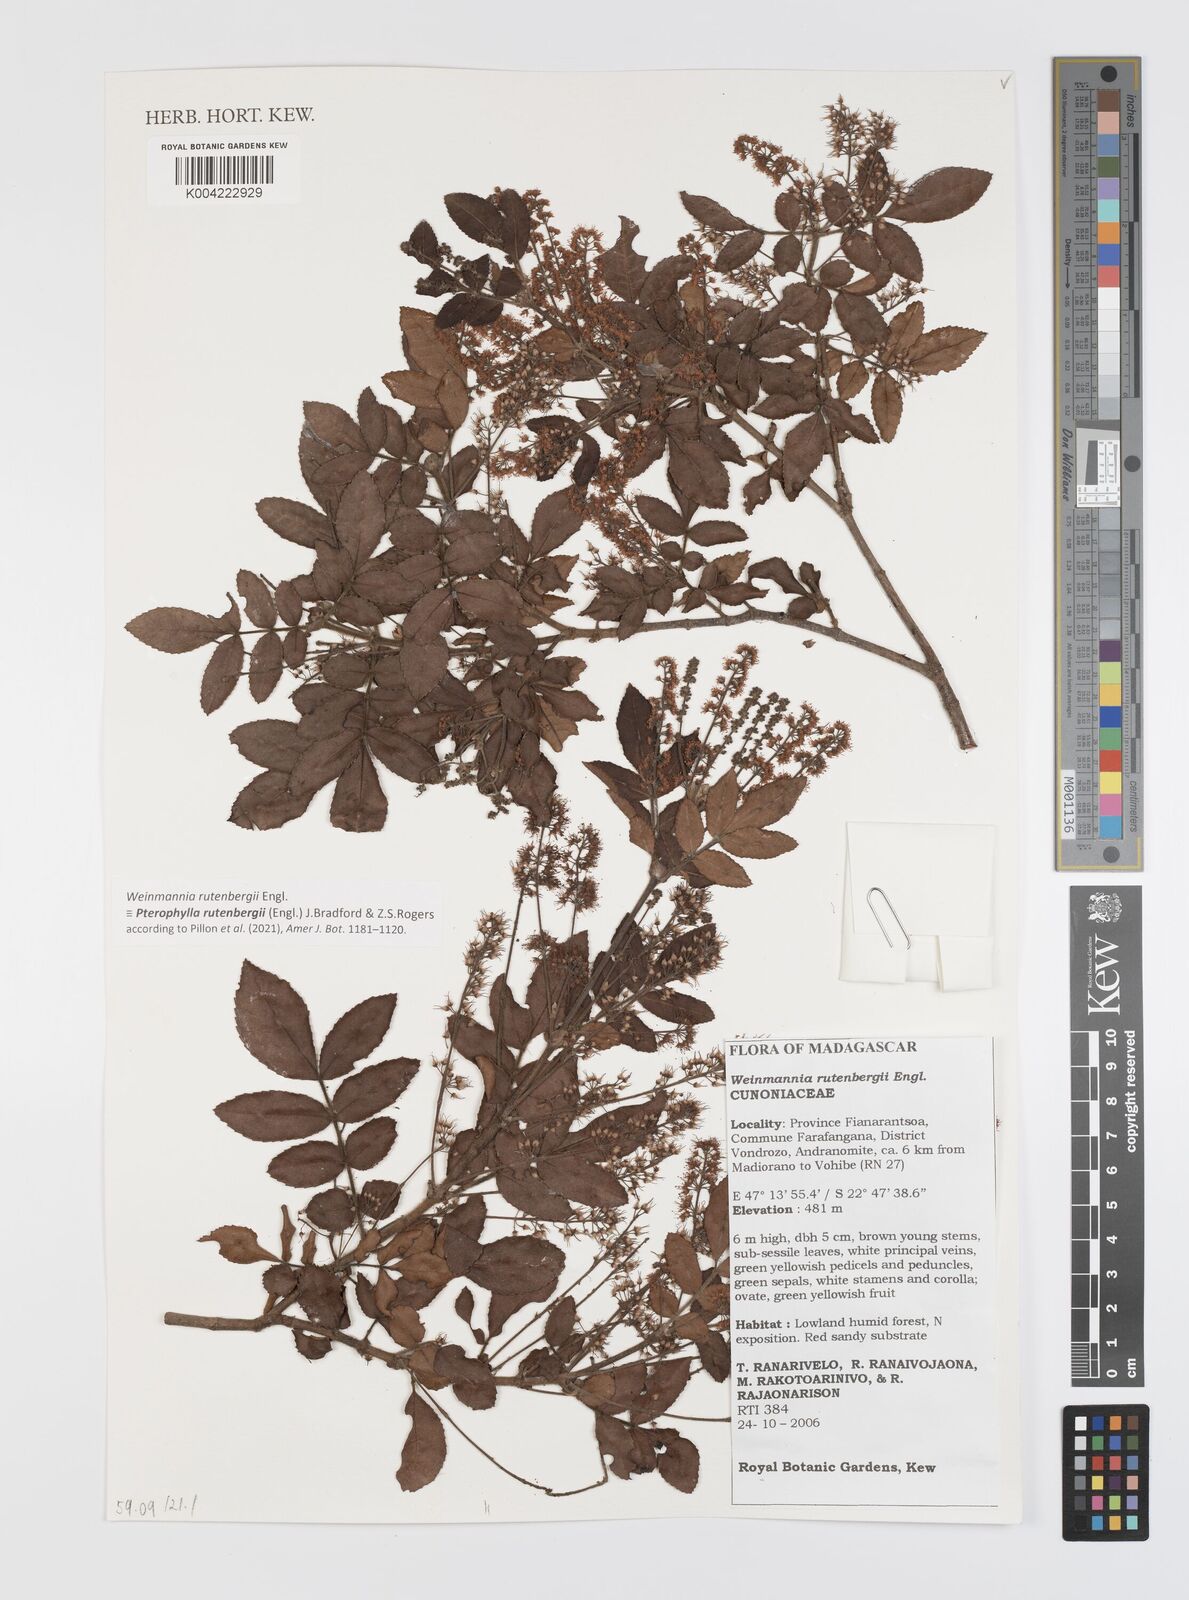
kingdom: Plantae
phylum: Tracheophyta
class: Magnoliopsida
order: Oxalidales
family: Cunoniaceae
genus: Pterophylla
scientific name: Pterophylla rutenbergii
